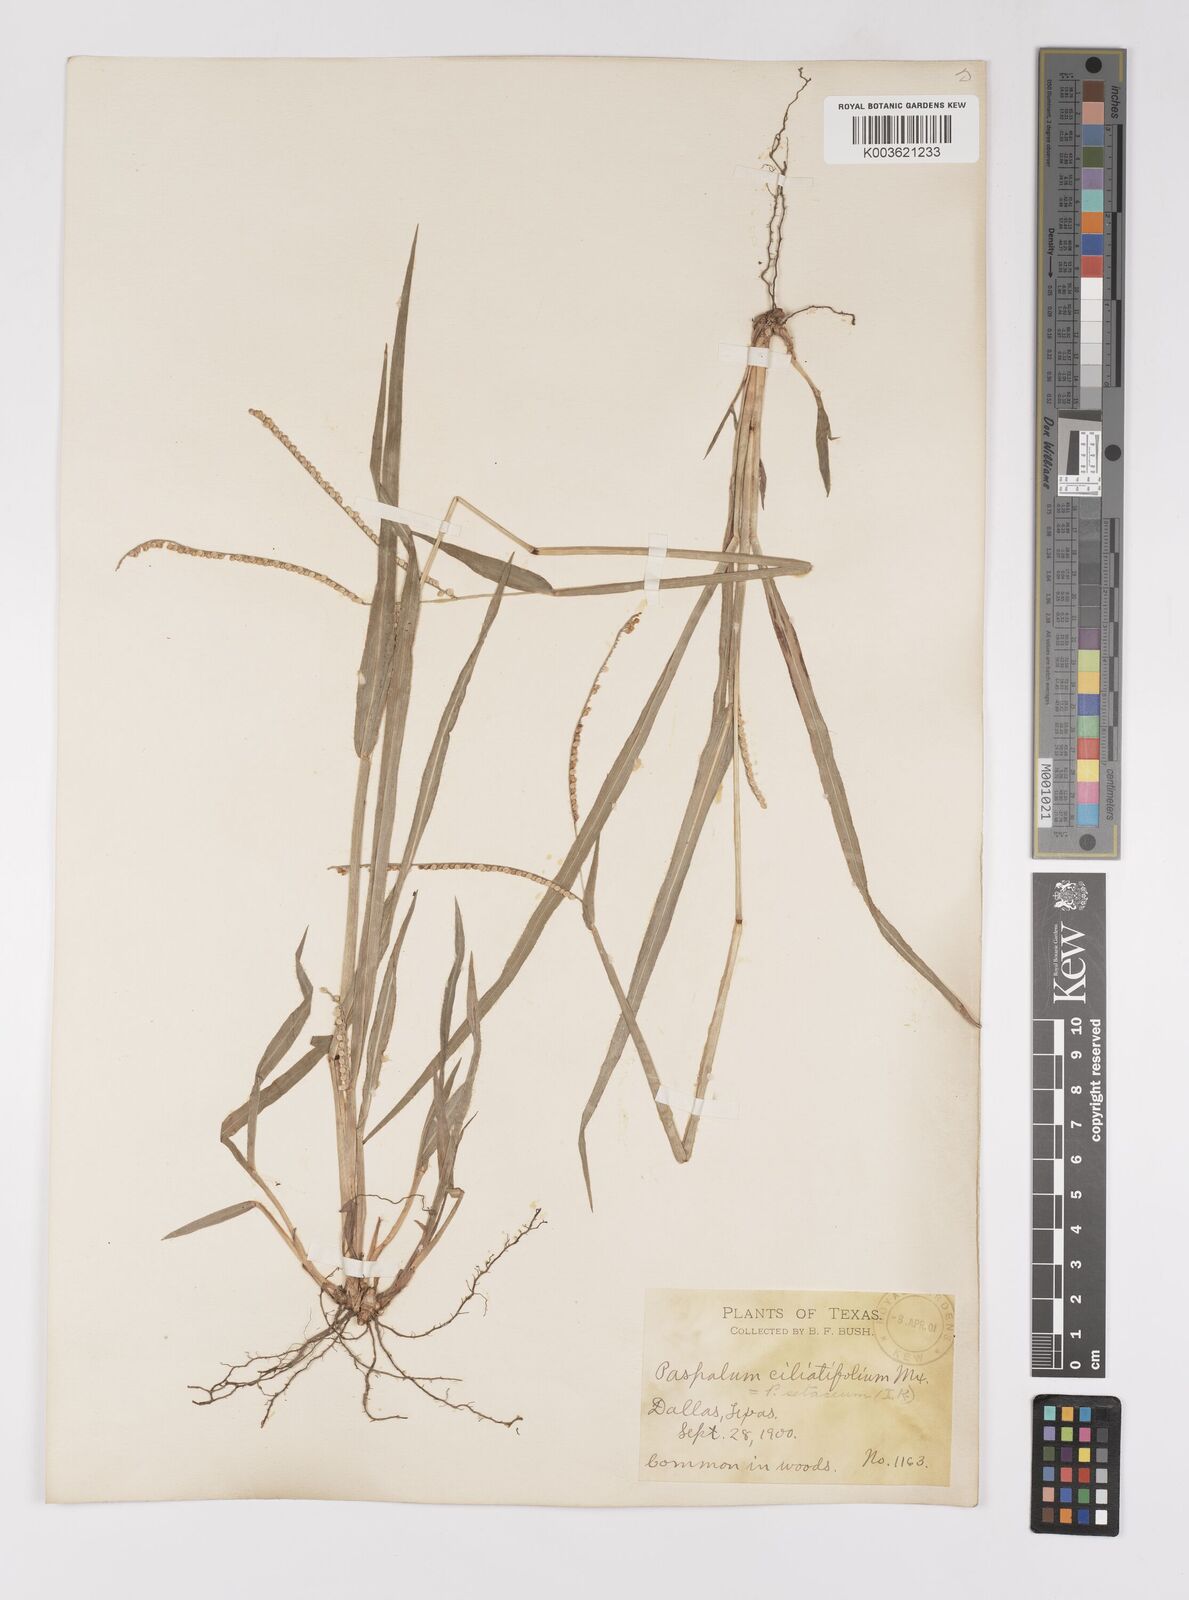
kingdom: Plantae
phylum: Tracheophyta
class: Liliopsida
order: Poales
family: Poaceae
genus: Paspalum
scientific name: Paspalum setaceum
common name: Slender paspalum
